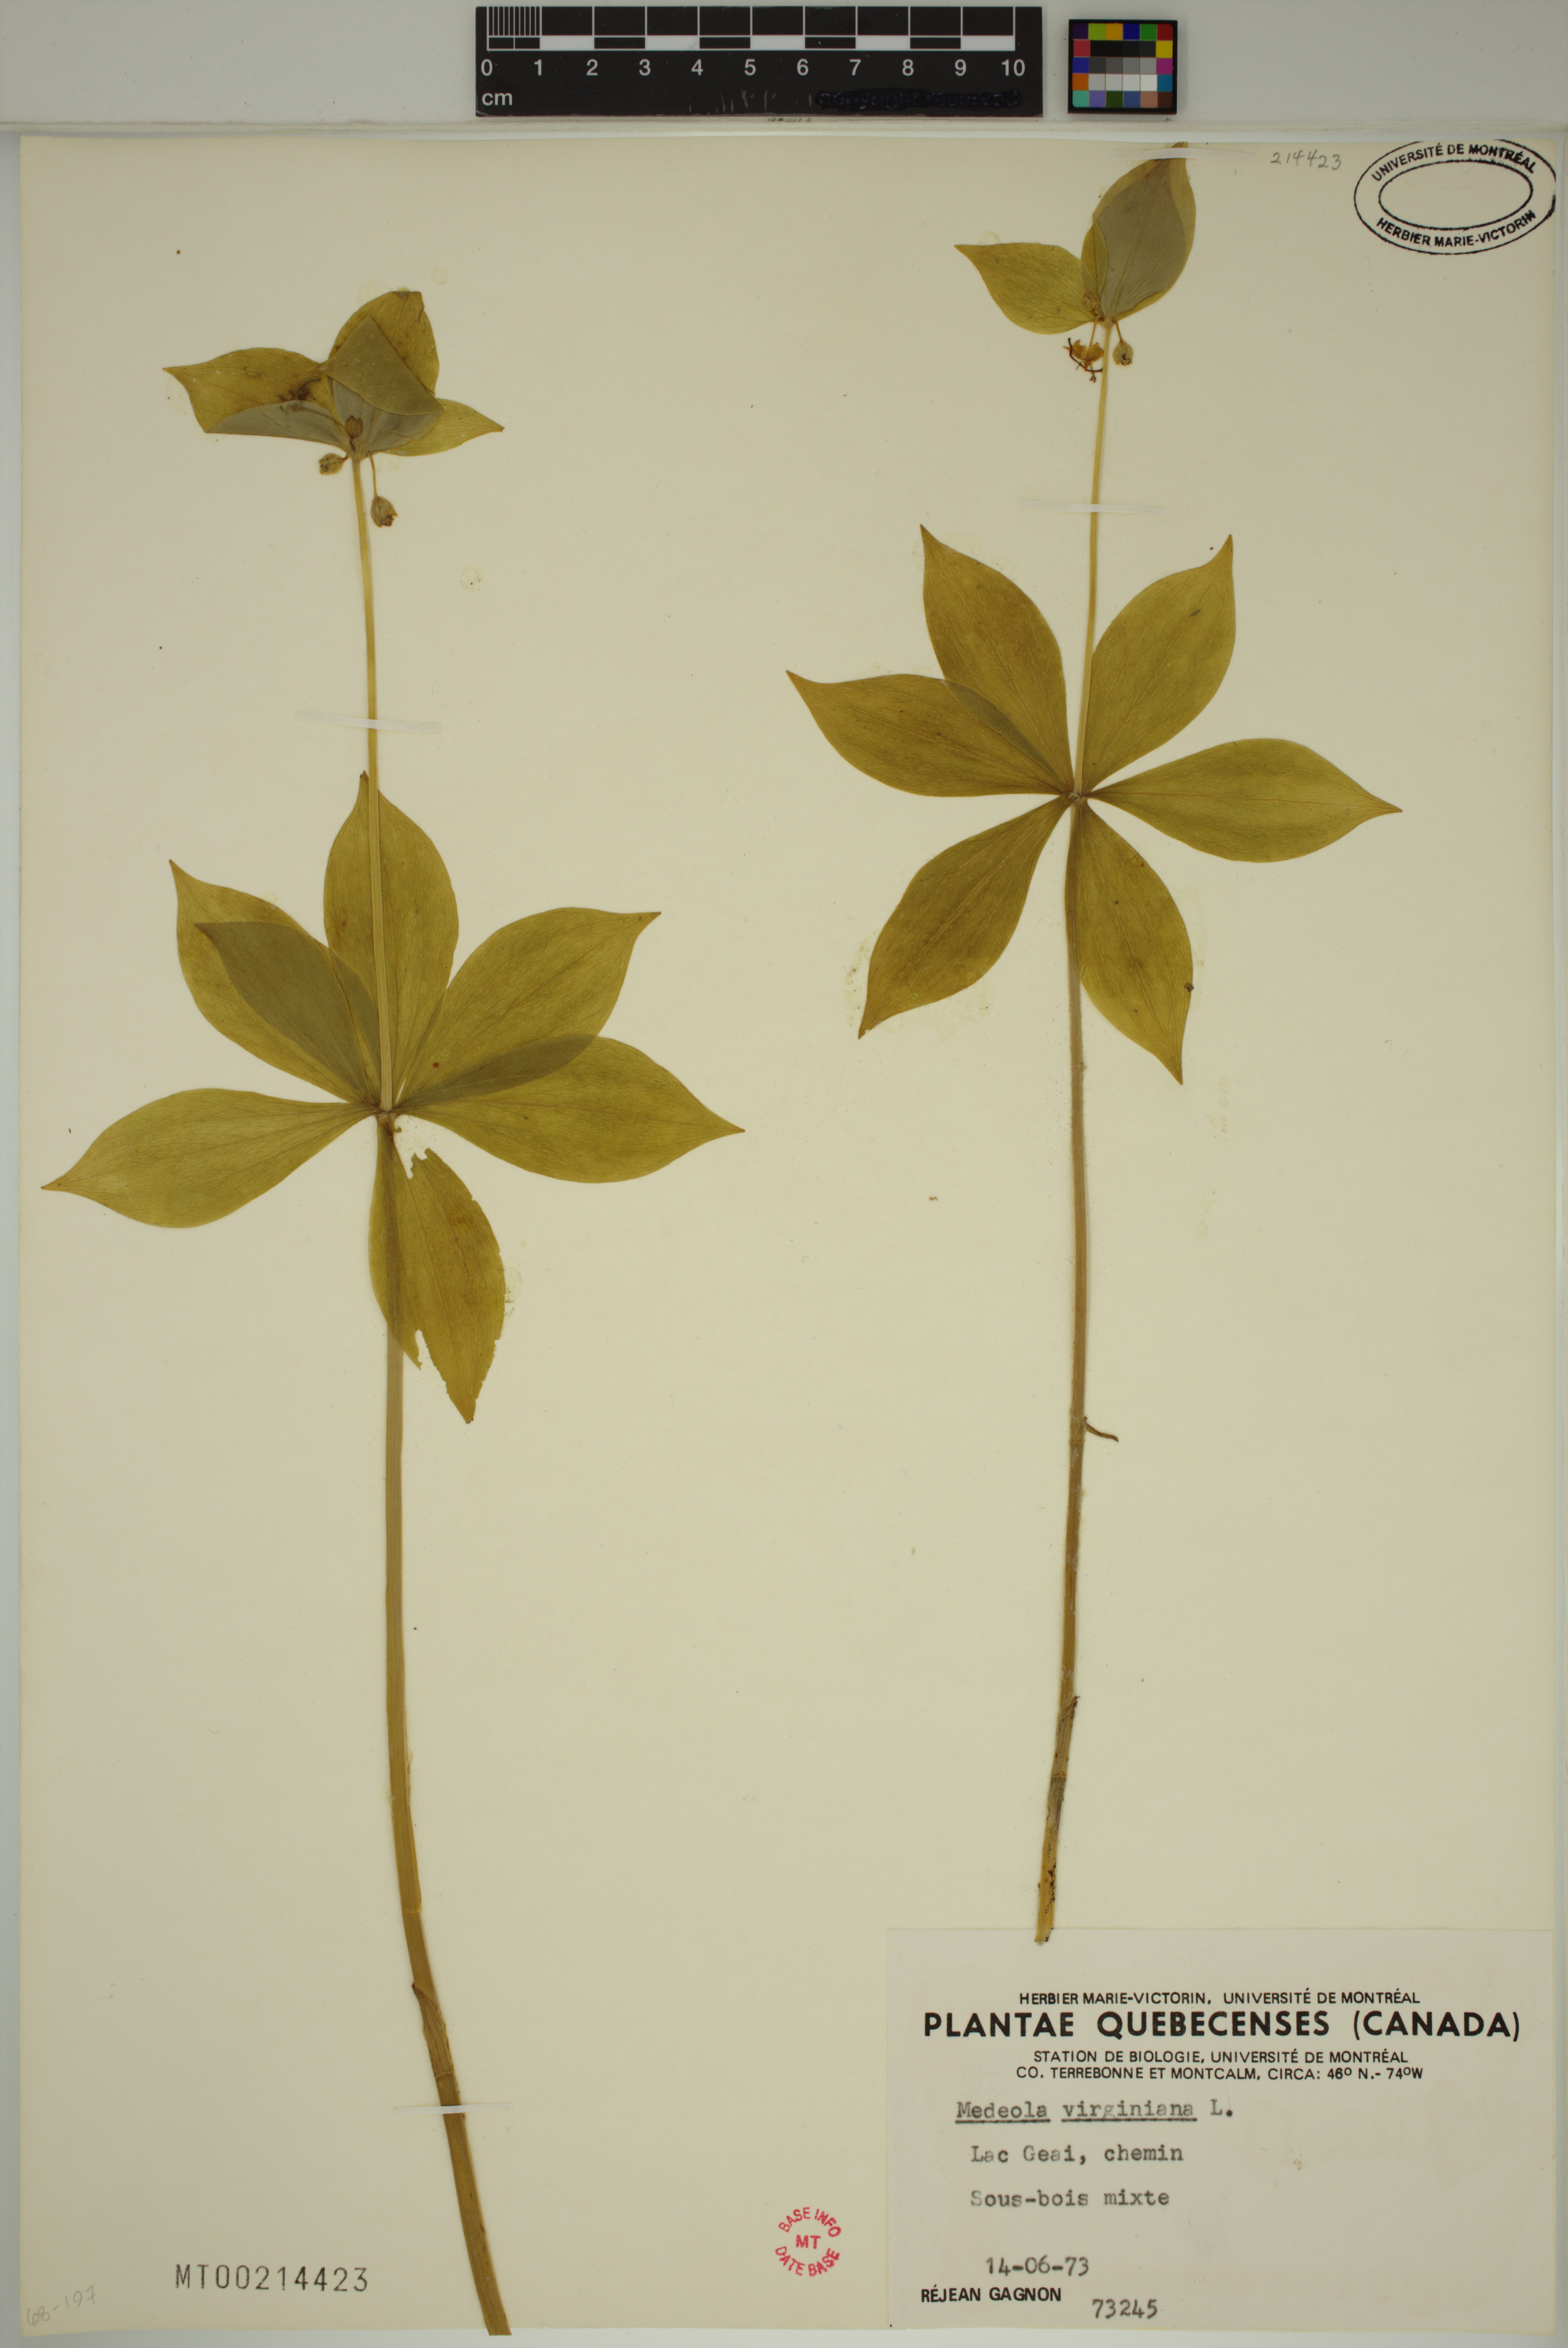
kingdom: Plantae
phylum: Tracheophyta
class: Liliopsida
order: Liliales
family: Liliaceae
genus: Medeola
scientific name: Medeola virginiana
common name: Indian cucumber-root
